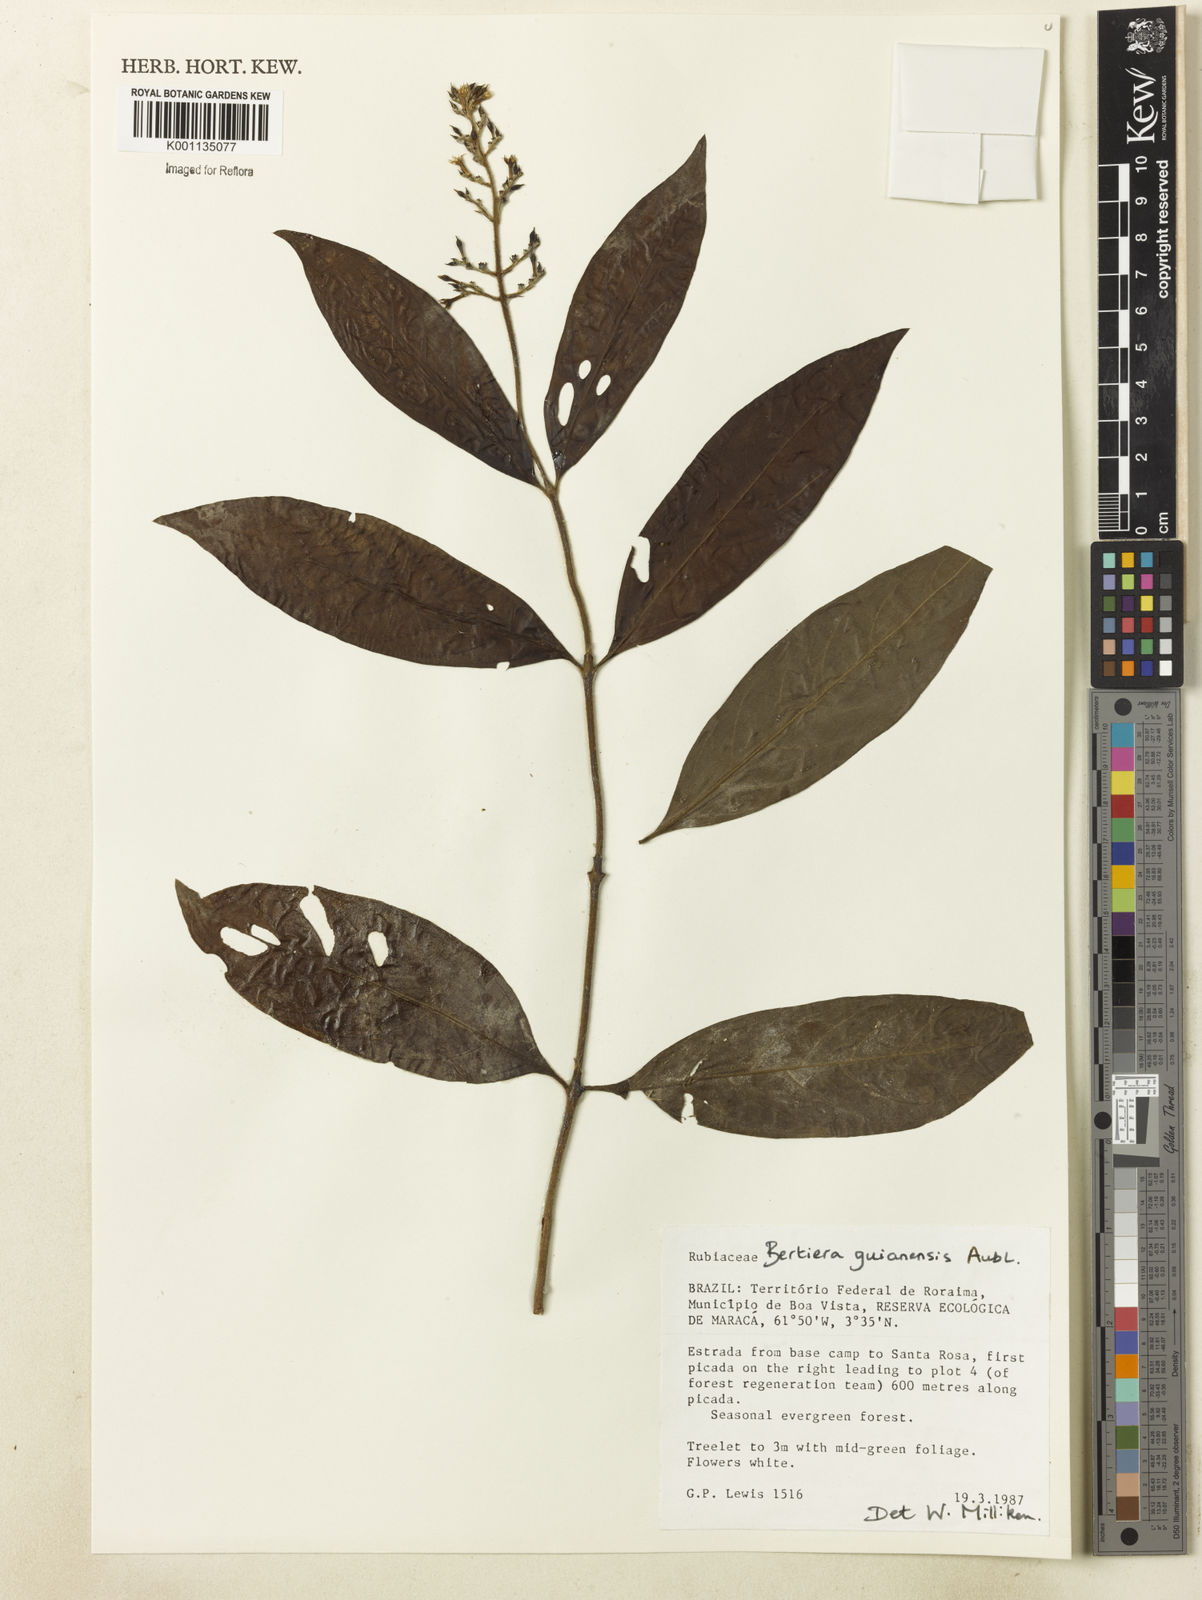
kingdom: Plantae
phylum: Tracheophyta
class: Magnoliopsida
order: Gentianales
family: Rubiaceae
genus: Bertiera
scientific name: Bertiera guianensis
